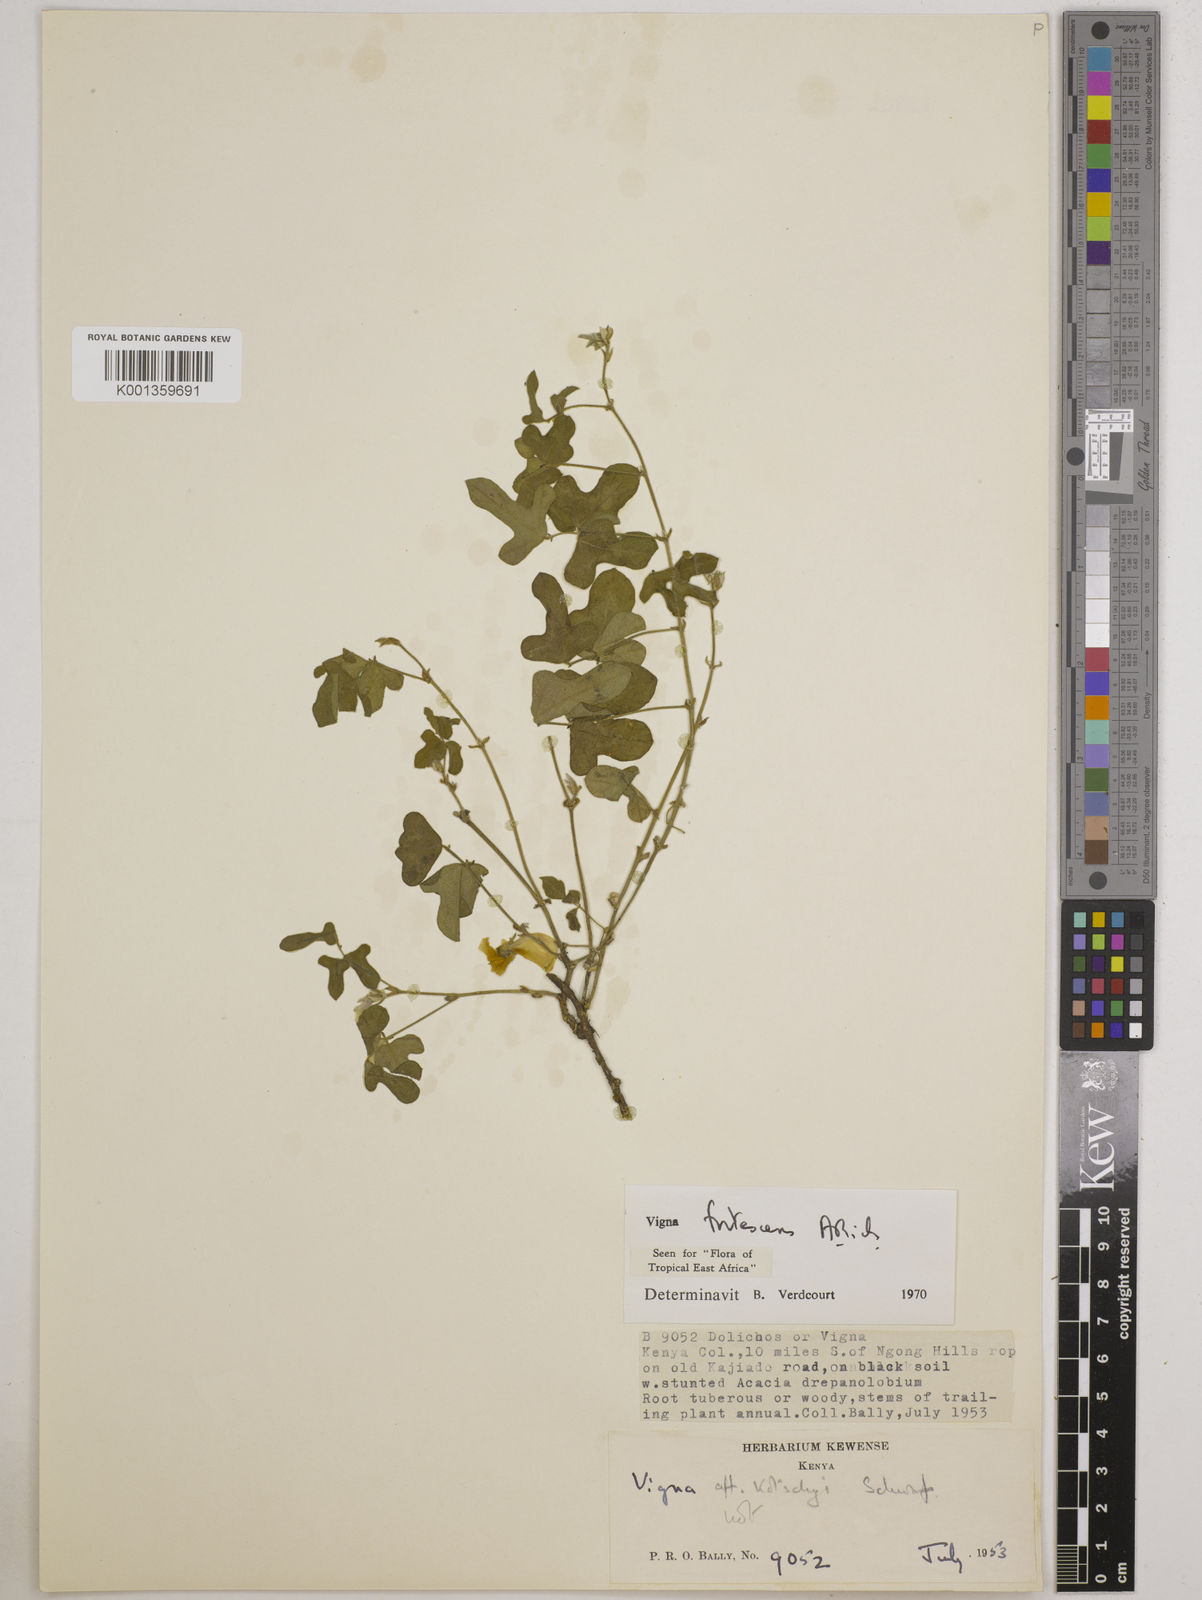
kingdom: Plantae
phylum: Tracheophyta
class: Magnoliopsida
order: Fabales
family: Fabaceae
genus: Vigna
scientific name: Vigna frutescens
